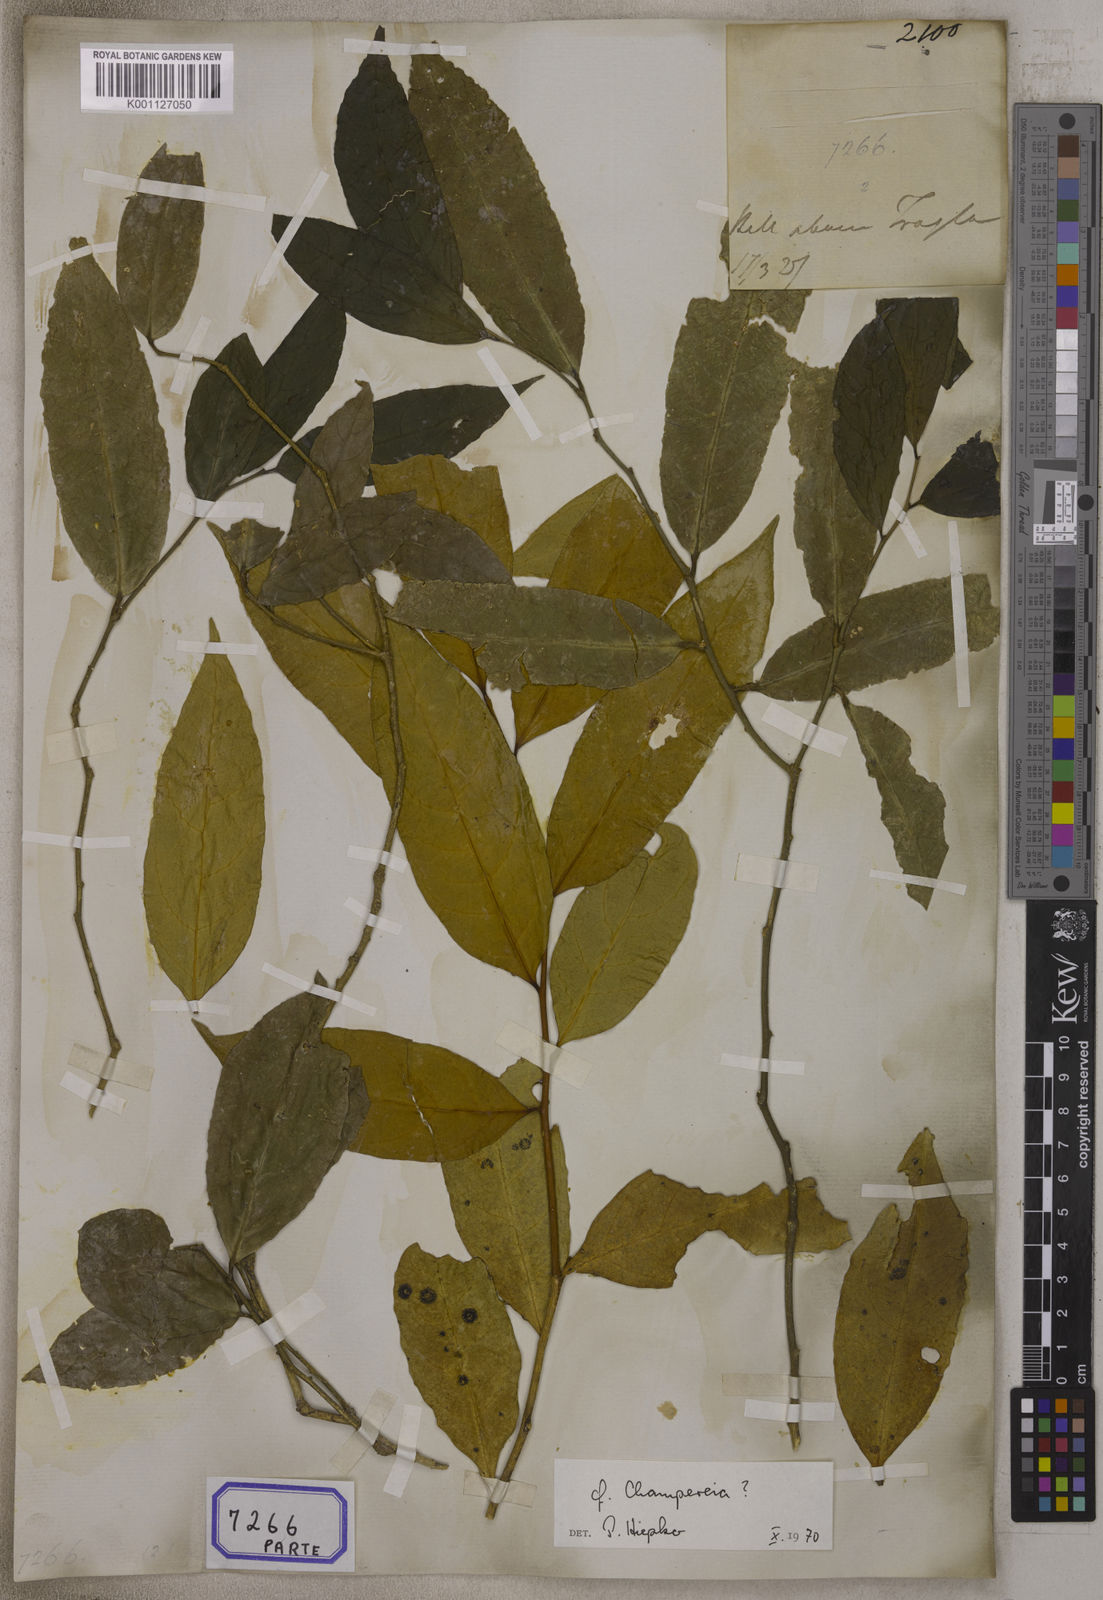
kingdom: Plantae
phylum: Tracheophyta
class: Magnoliopsida
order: Santalales
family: Opiliaceae
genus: Champereia
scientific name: Champereia manillana
